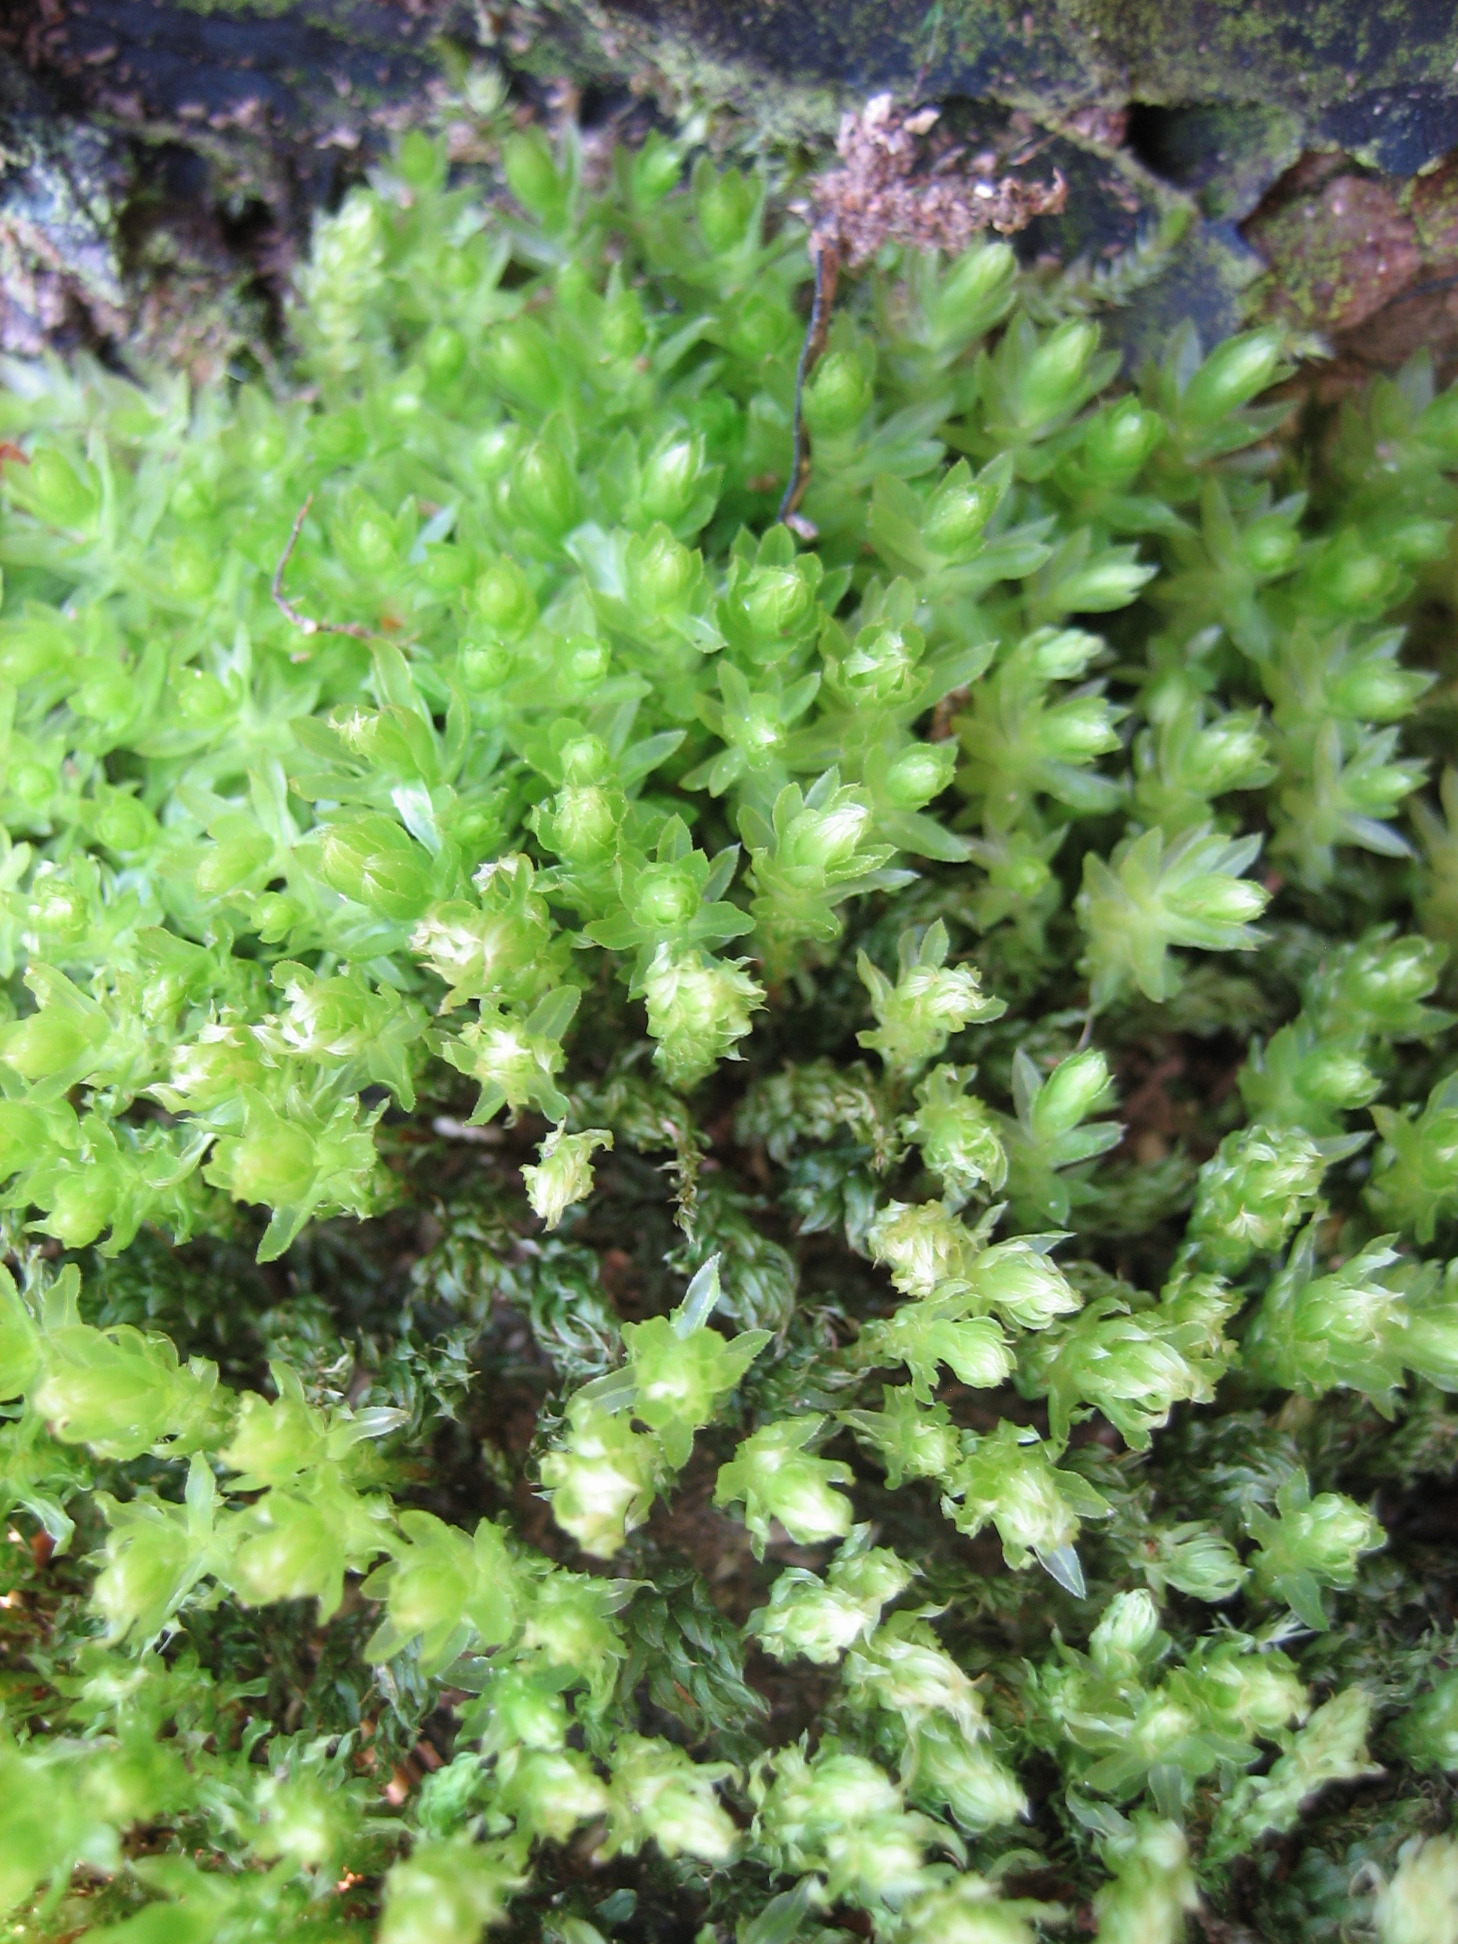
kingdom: Plantae
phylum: Bryophyta
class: Bryopsida
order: Bryales
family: Mniaceae
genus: Mnium
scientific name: Mnium hornum
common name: Brunfiltet stjernemos
